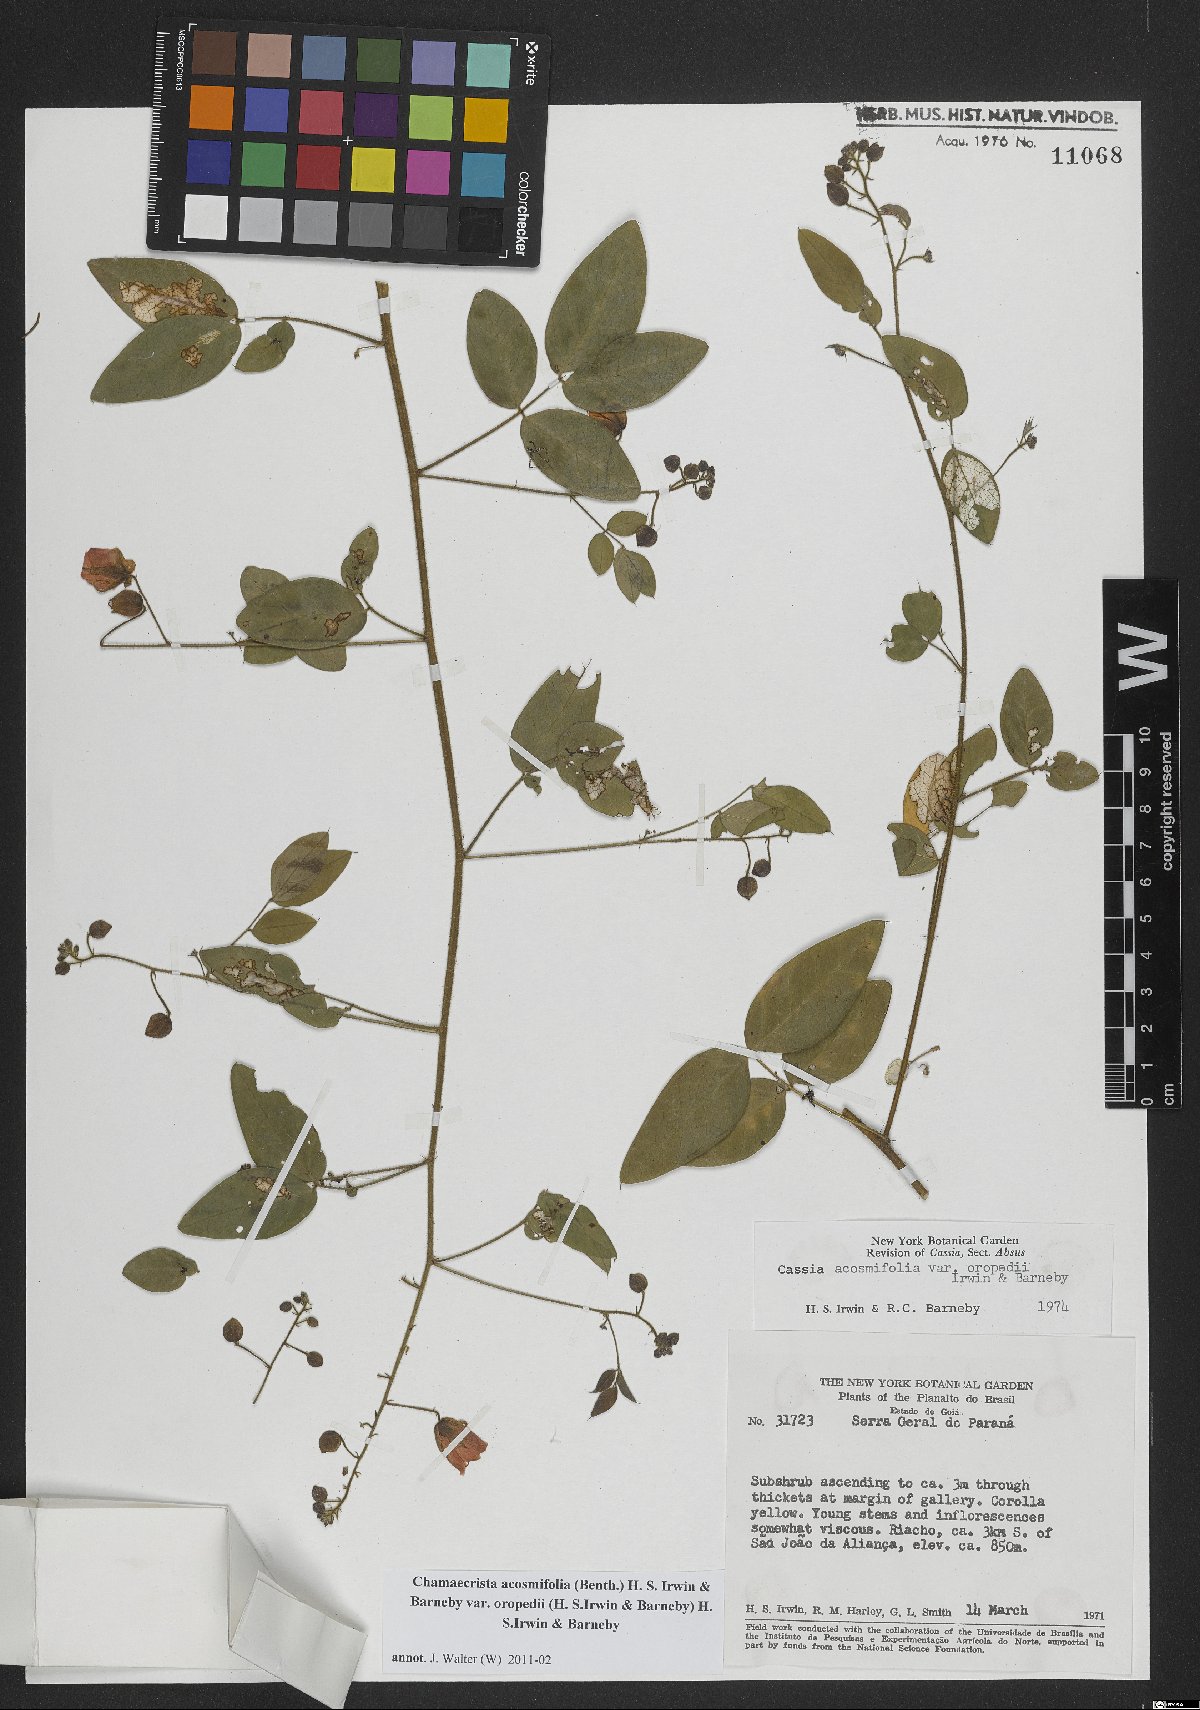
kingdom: Plantae
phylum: Tracheophyta
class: Magnoliopsida
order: Fabales
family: Fabaceae
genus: Chamaecrista
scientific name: Chamaecrista acosmifolia
